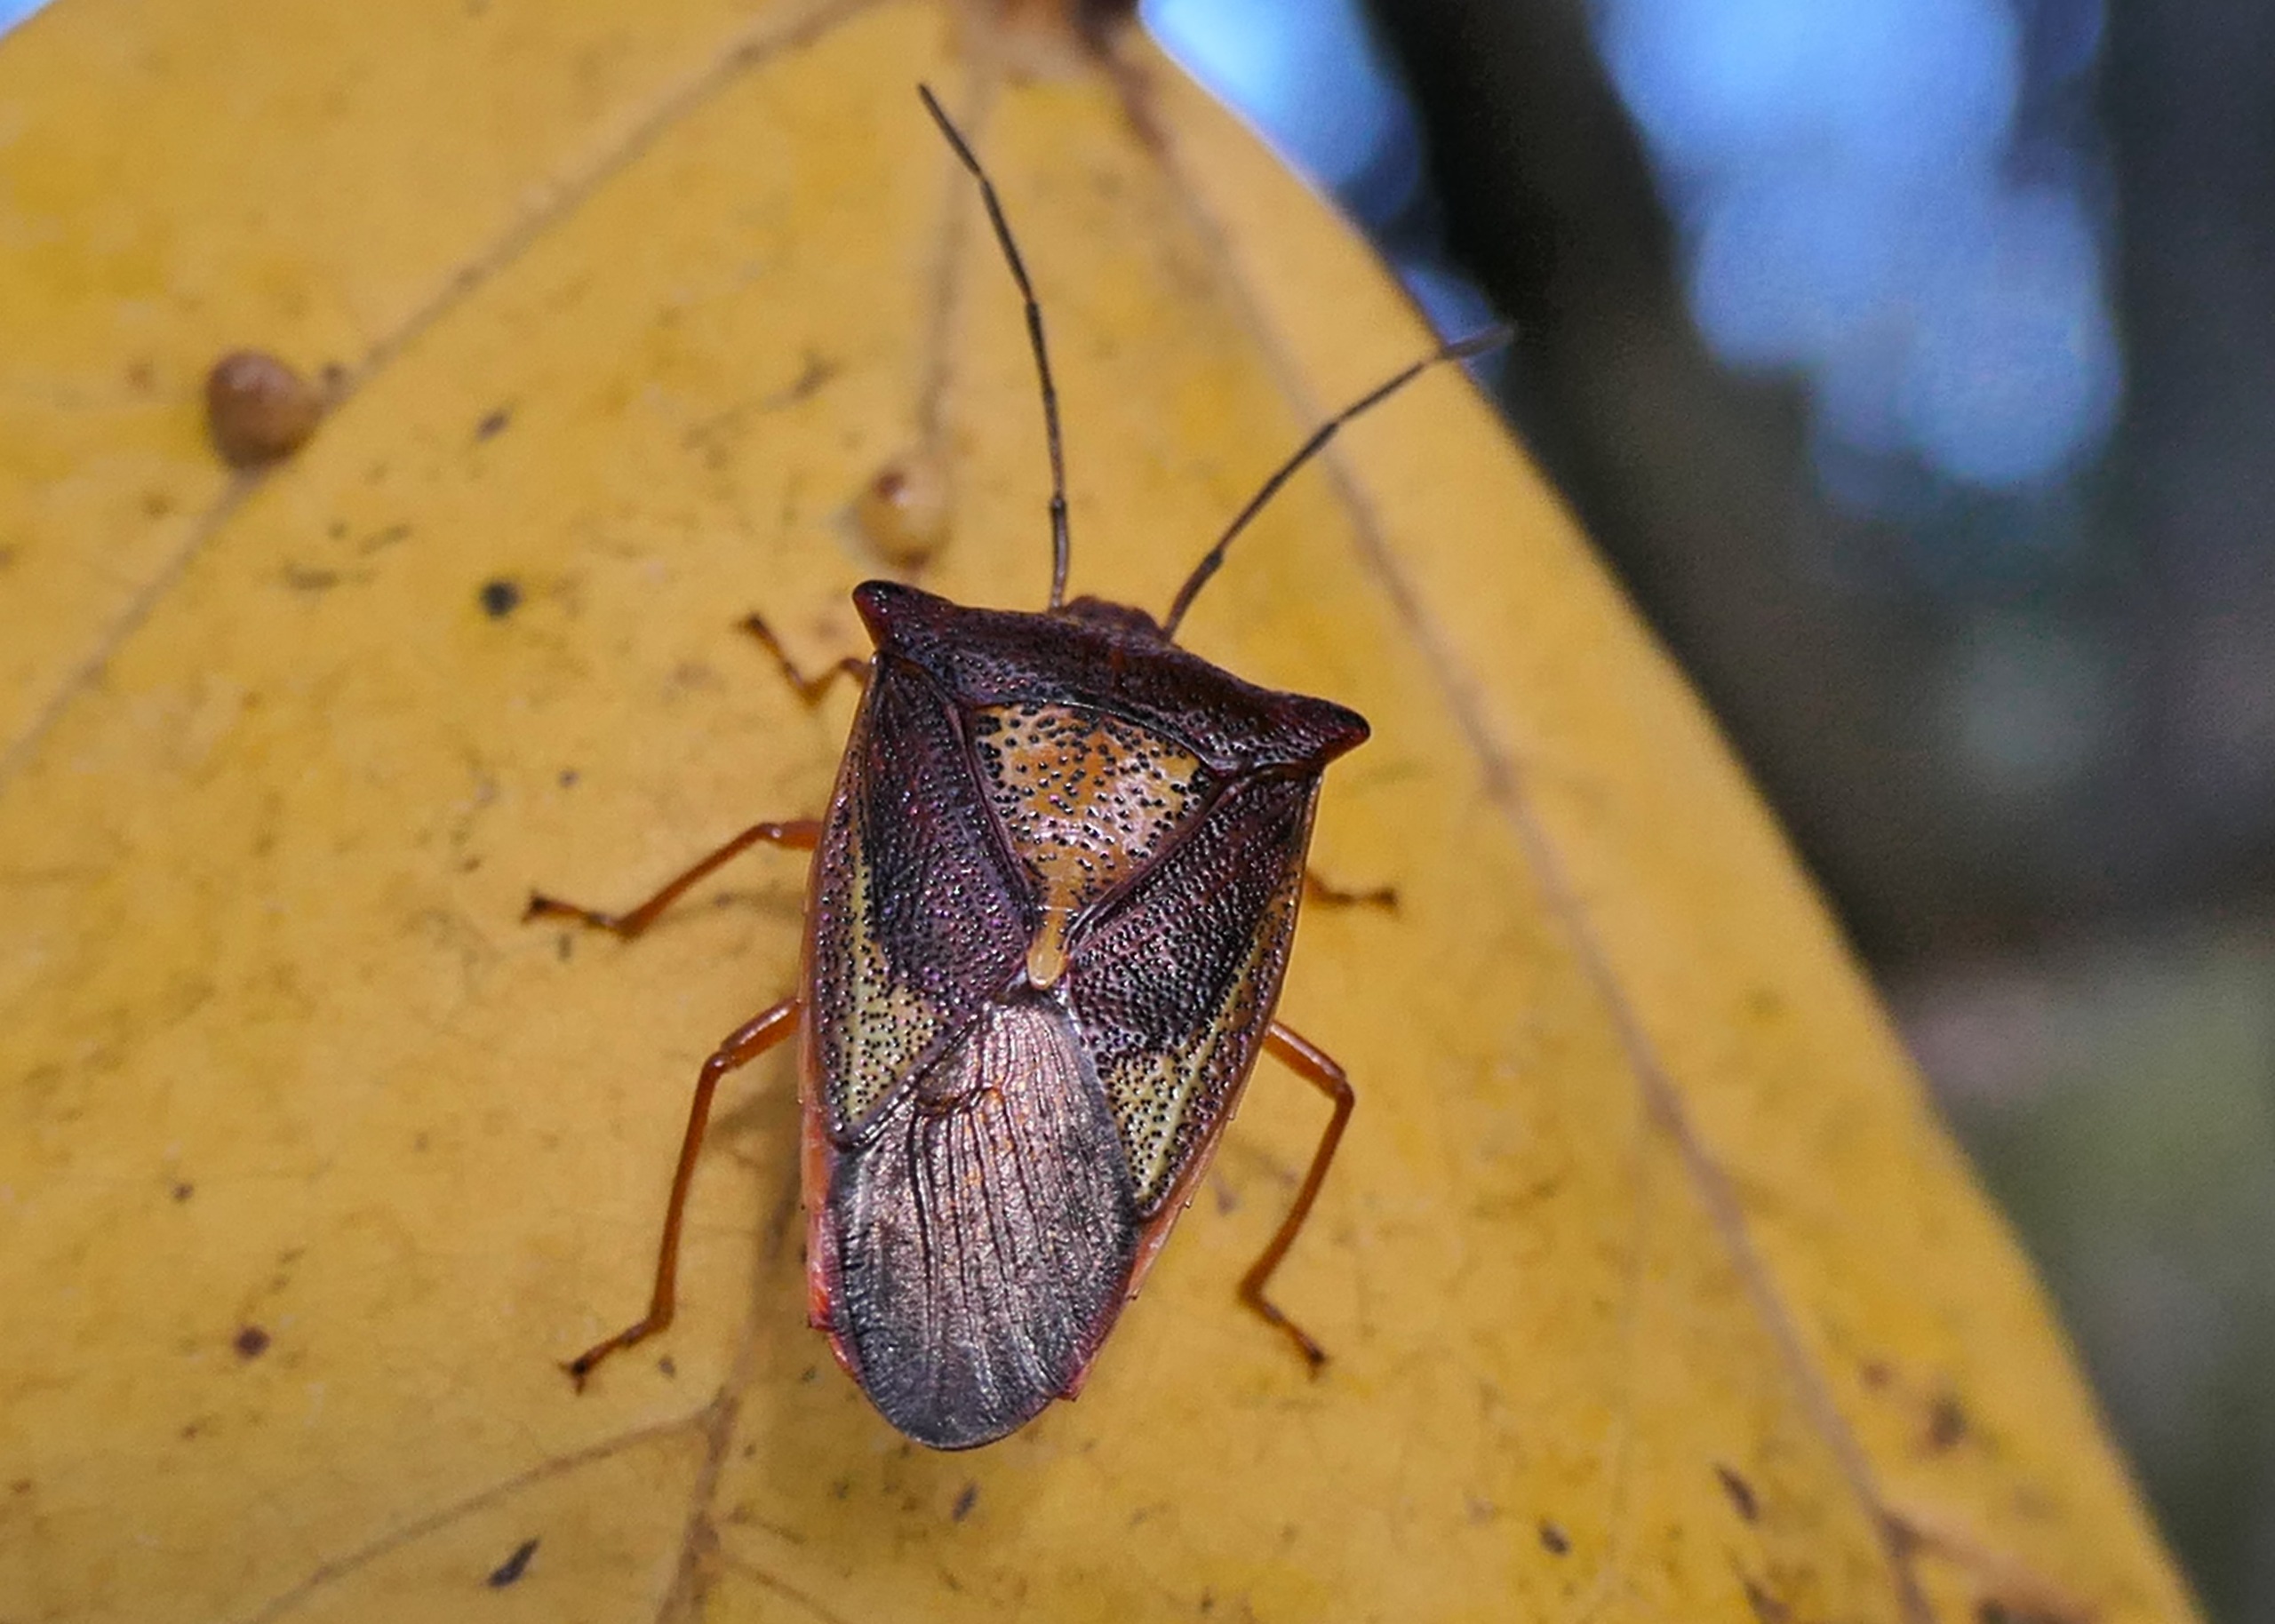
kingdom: Animalia
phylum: Arthropoda
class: Insecta
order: Hemiptera
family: Acanthosomatidae
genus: Acanthosoma
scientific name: Acanthosoma haemorrhoidale
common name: Stor løvtæge
